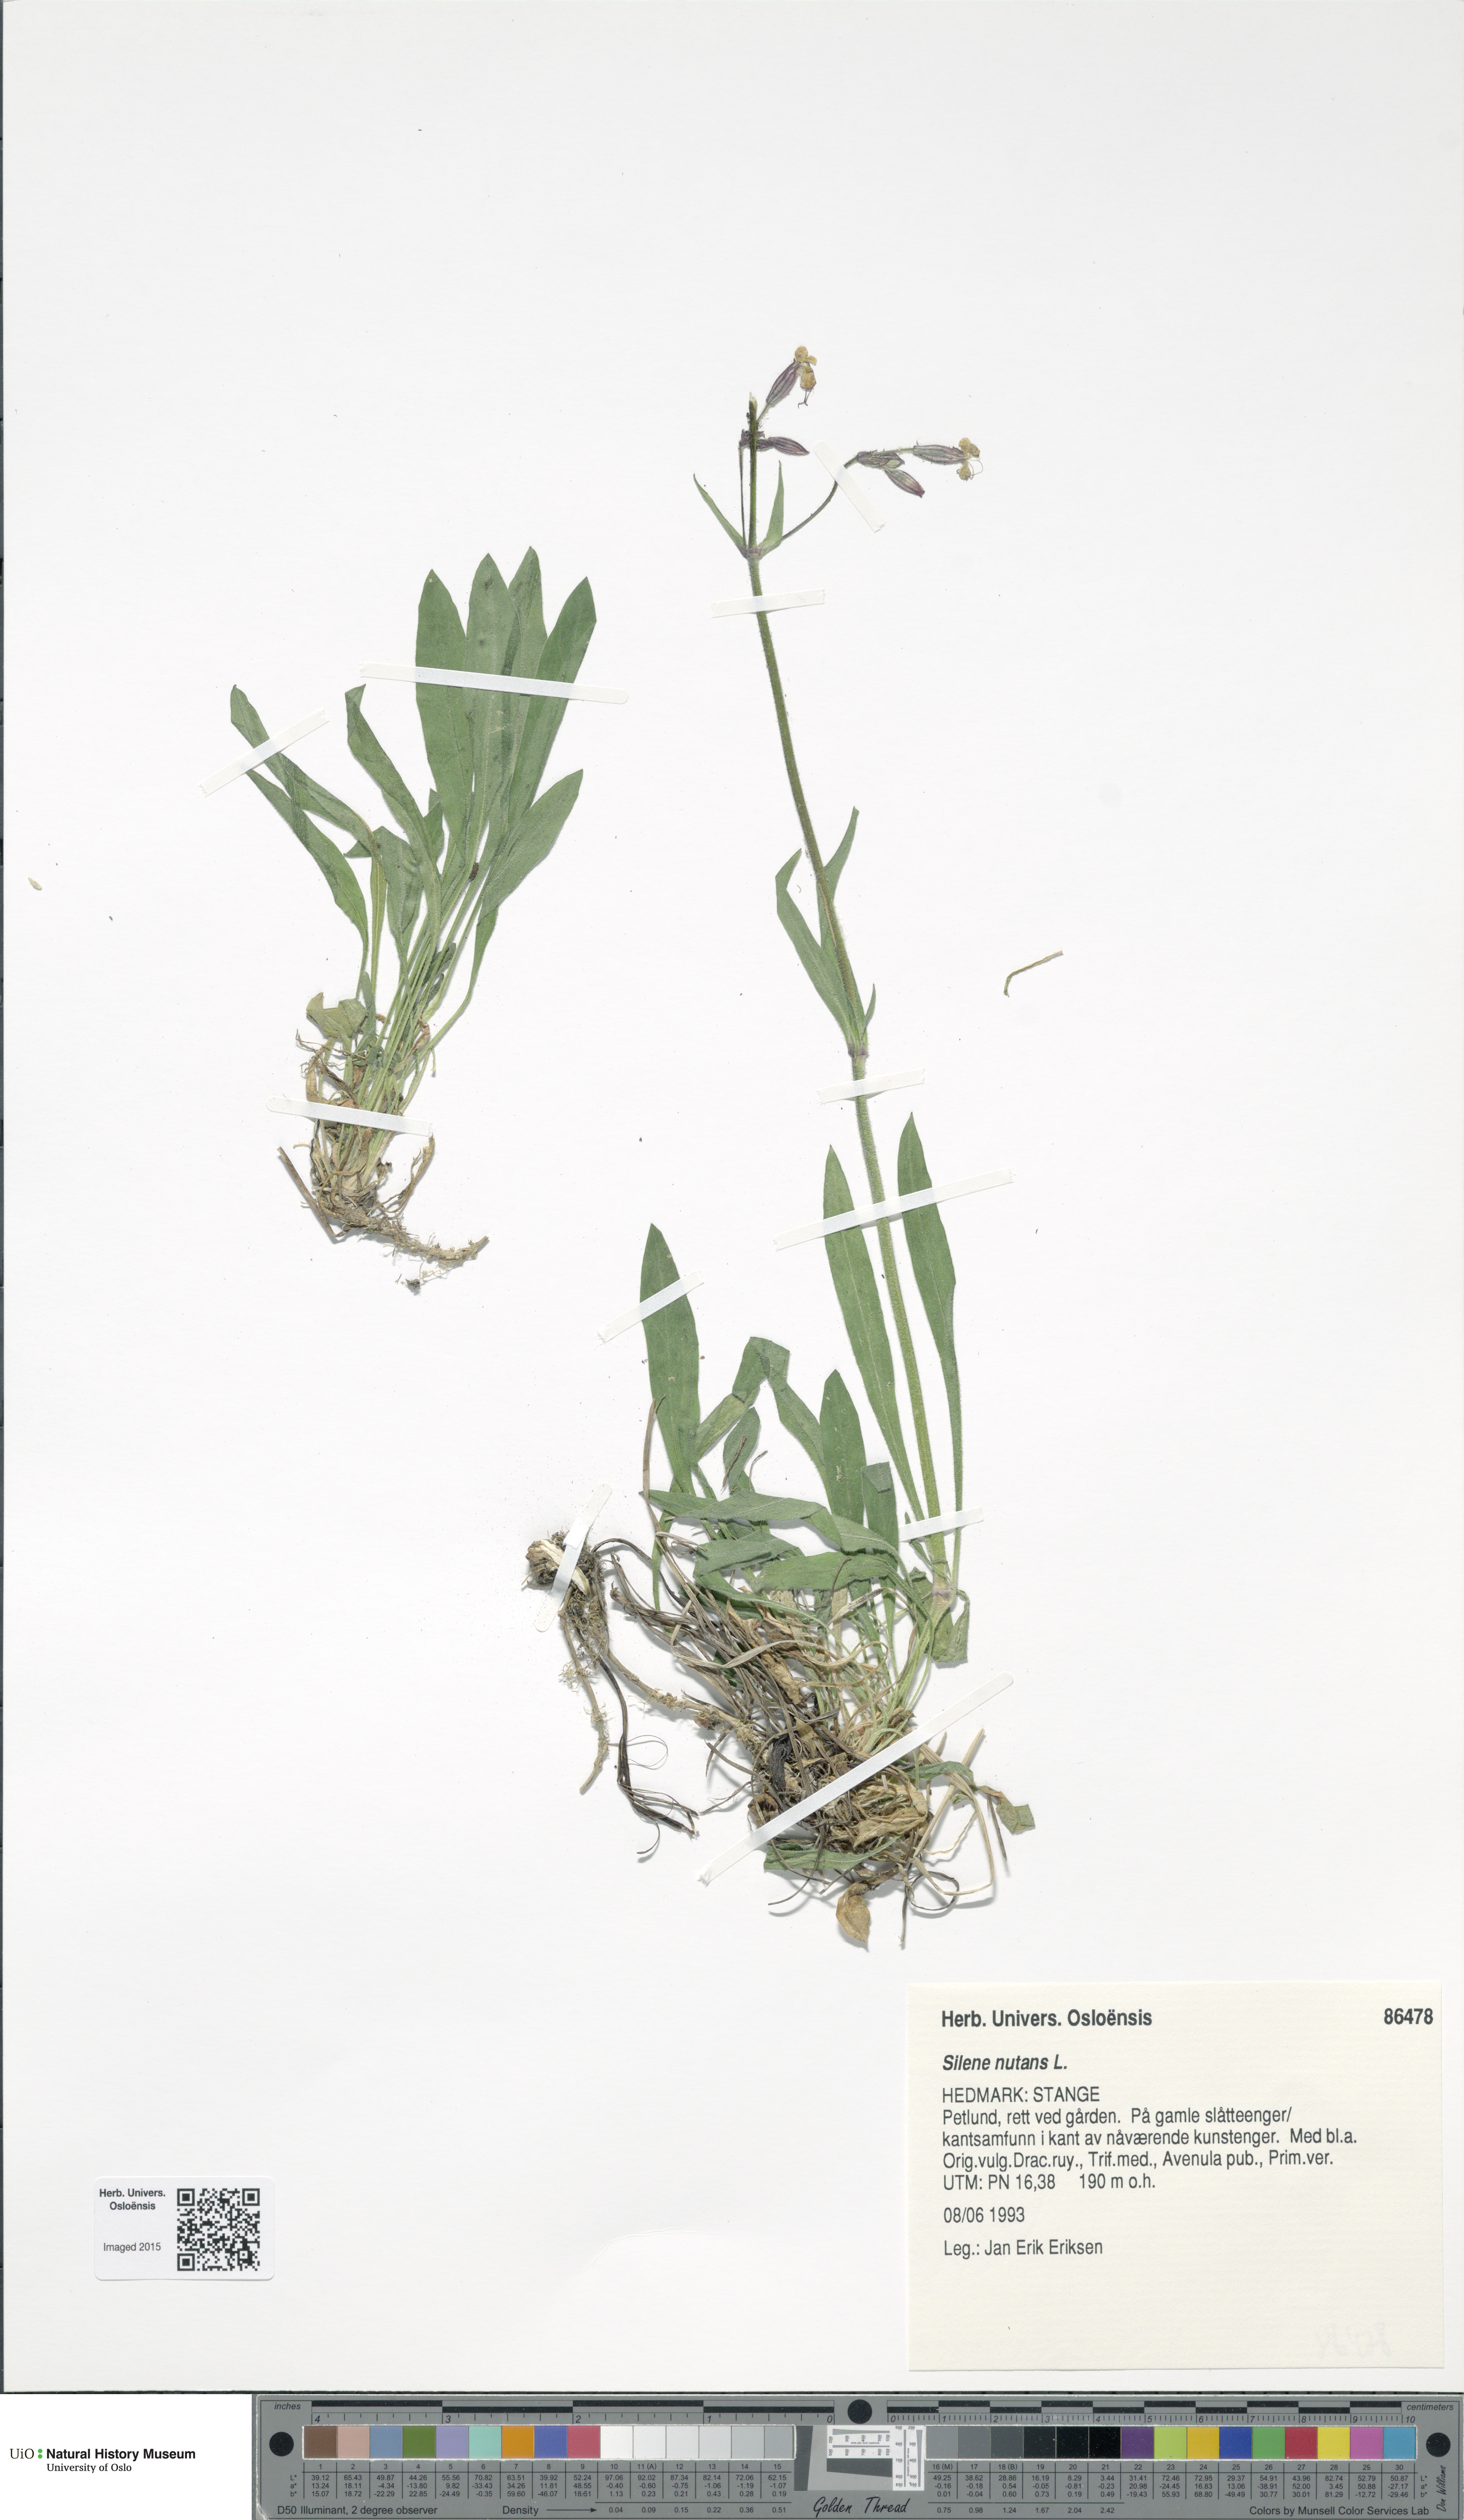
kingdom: Plantae
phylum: Tracheophyta
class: Magnoliopsida
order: Caryophyllales
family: Caryophyllaceae
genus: Silene
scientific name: Silene nutans
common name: Nottingham catchfly
